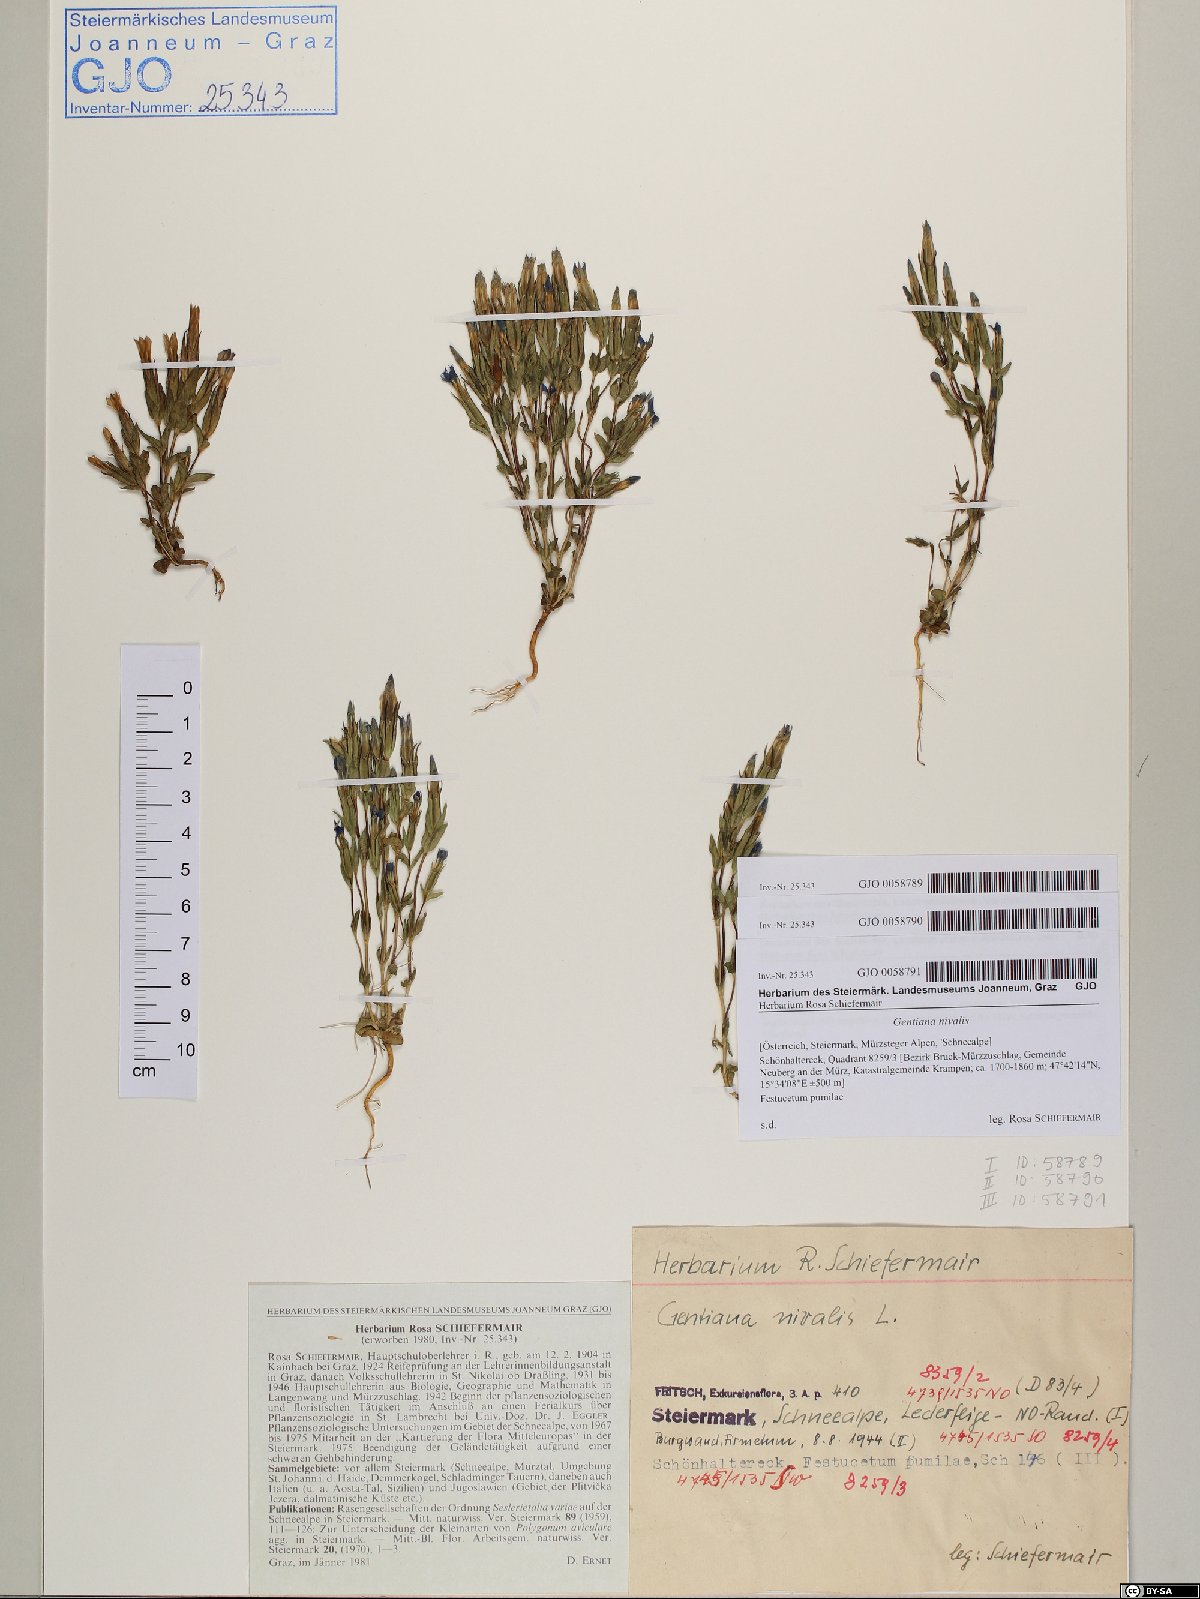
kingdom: Plantae
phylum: Tracheophyta
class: Magnoliopsida
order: Gentianales
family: Gentianaceae
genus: Gentiana
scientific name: Gentiana nivalis
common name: Alpine gentian
